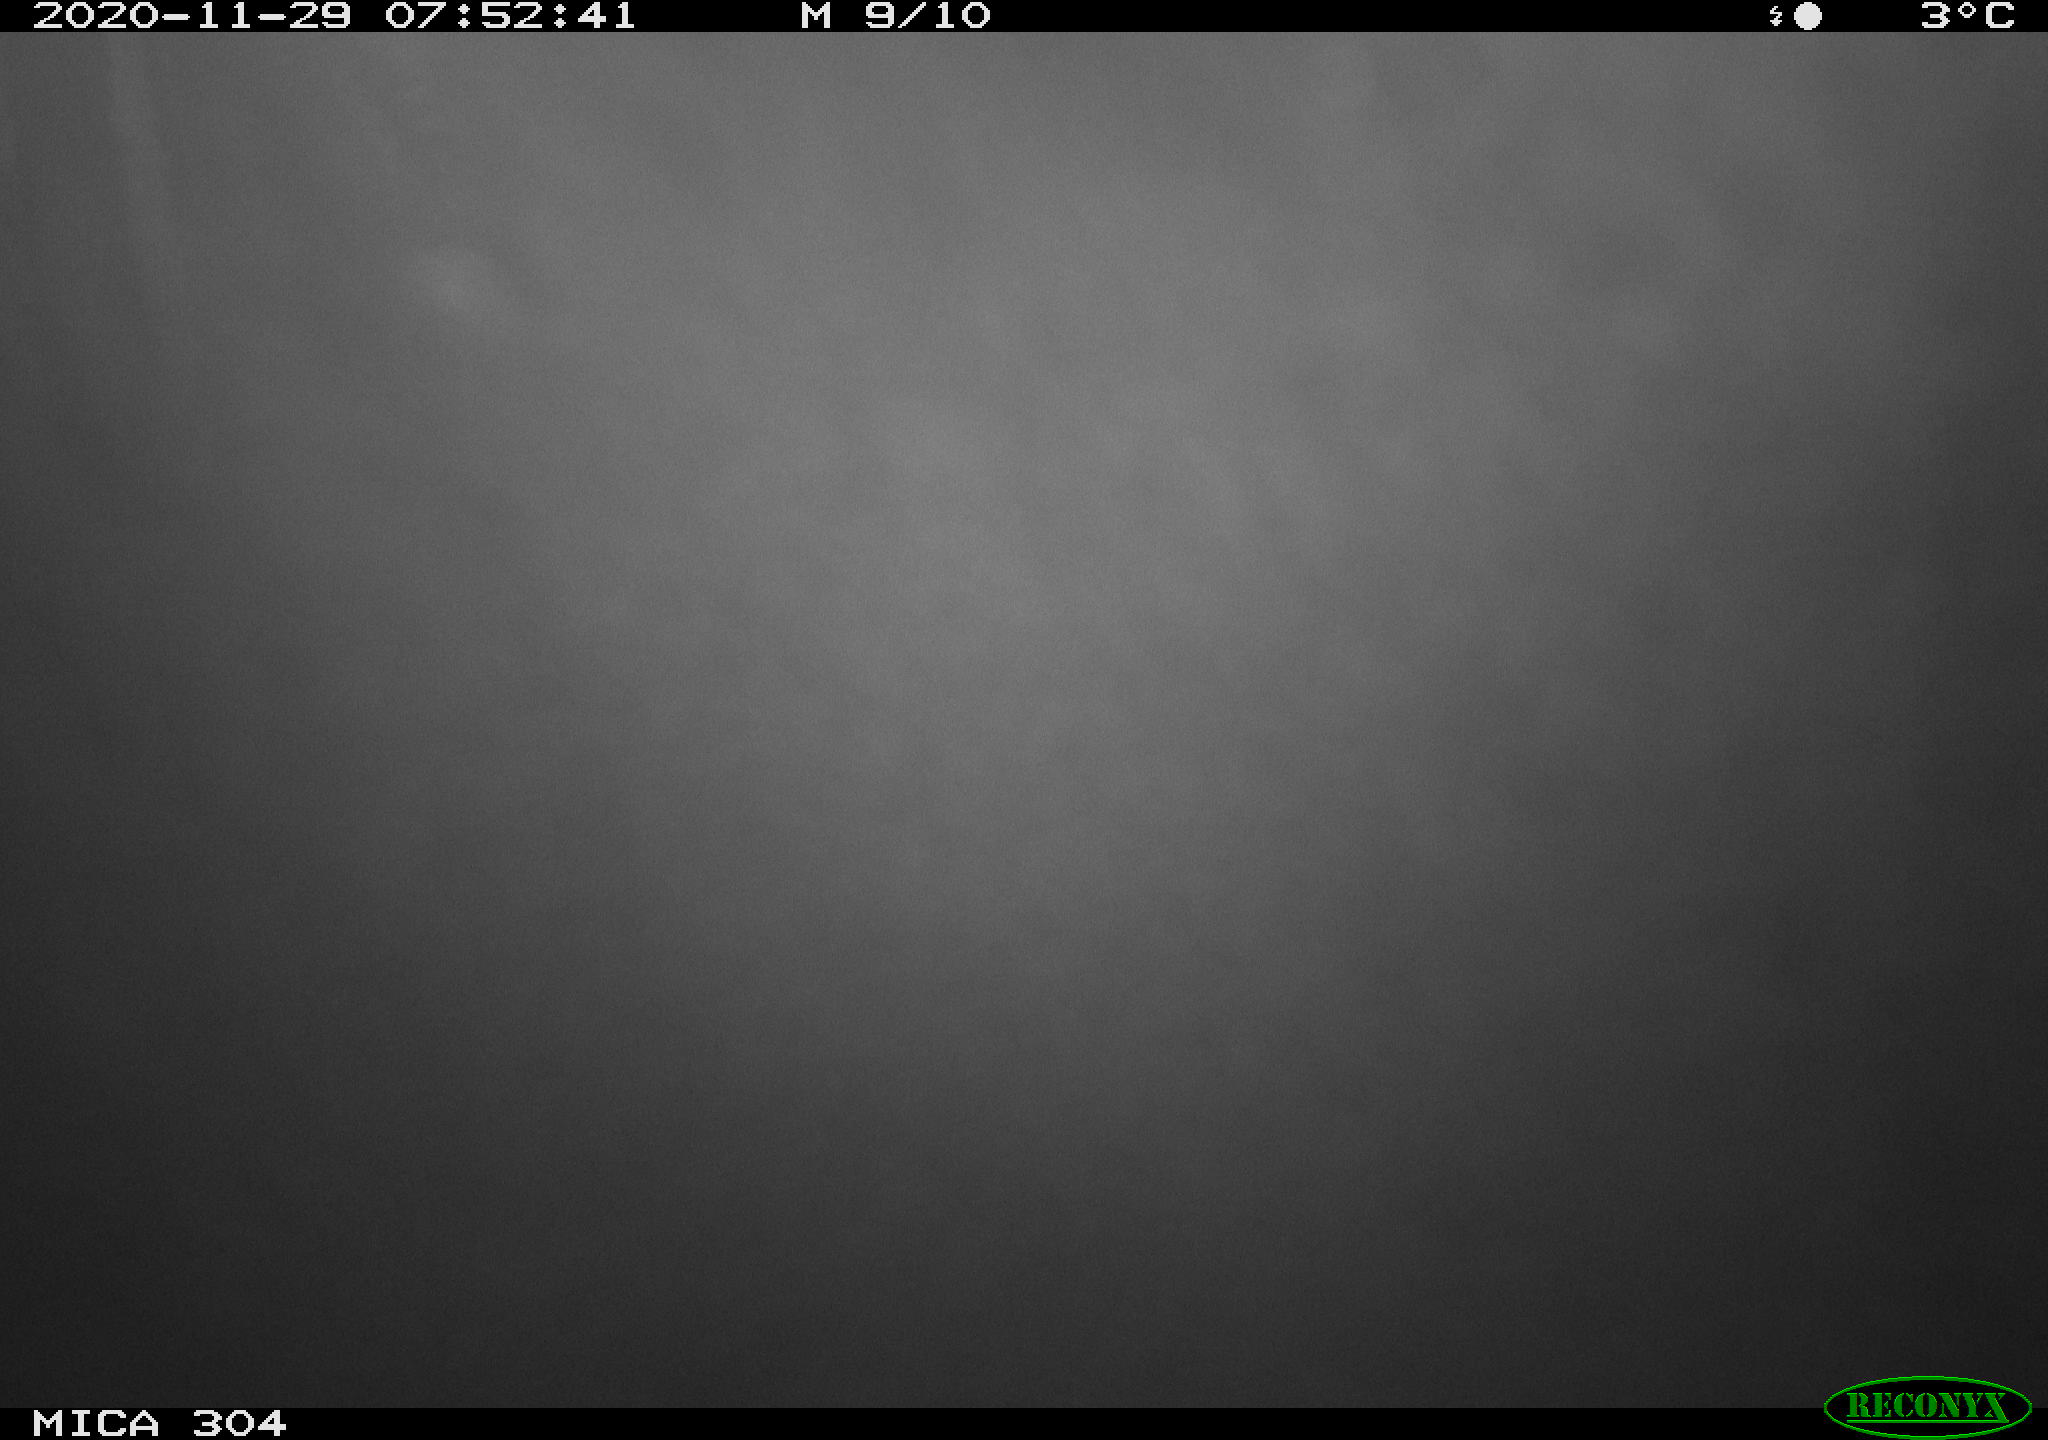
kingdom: Animalia
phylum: Chordata
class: Aves
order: Gruiformes
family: Rallidae
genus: Fulica
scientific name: Fulica atra
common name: Eurasian coot
